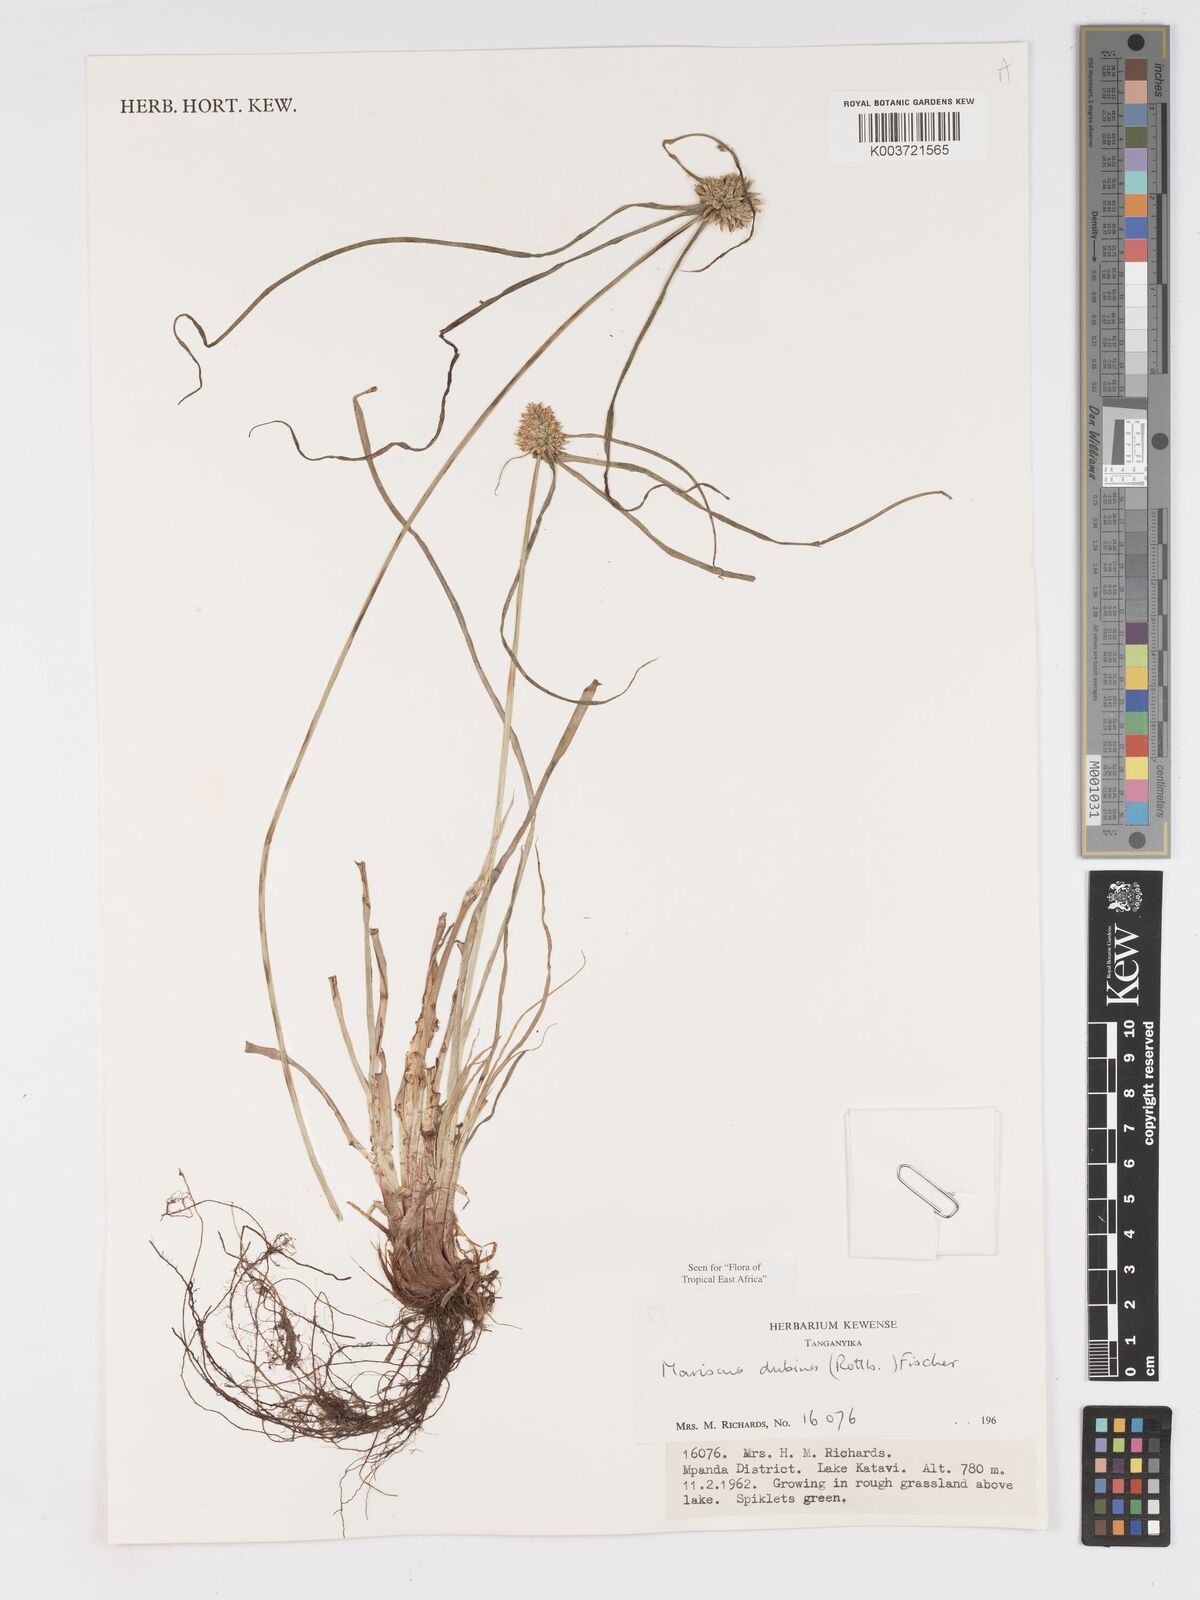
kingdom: Plantae
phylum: Tracheophyta
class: Liliopsida
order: Poales
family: Cyperaceae
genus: Cyperus
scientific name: Cyperus dubius
